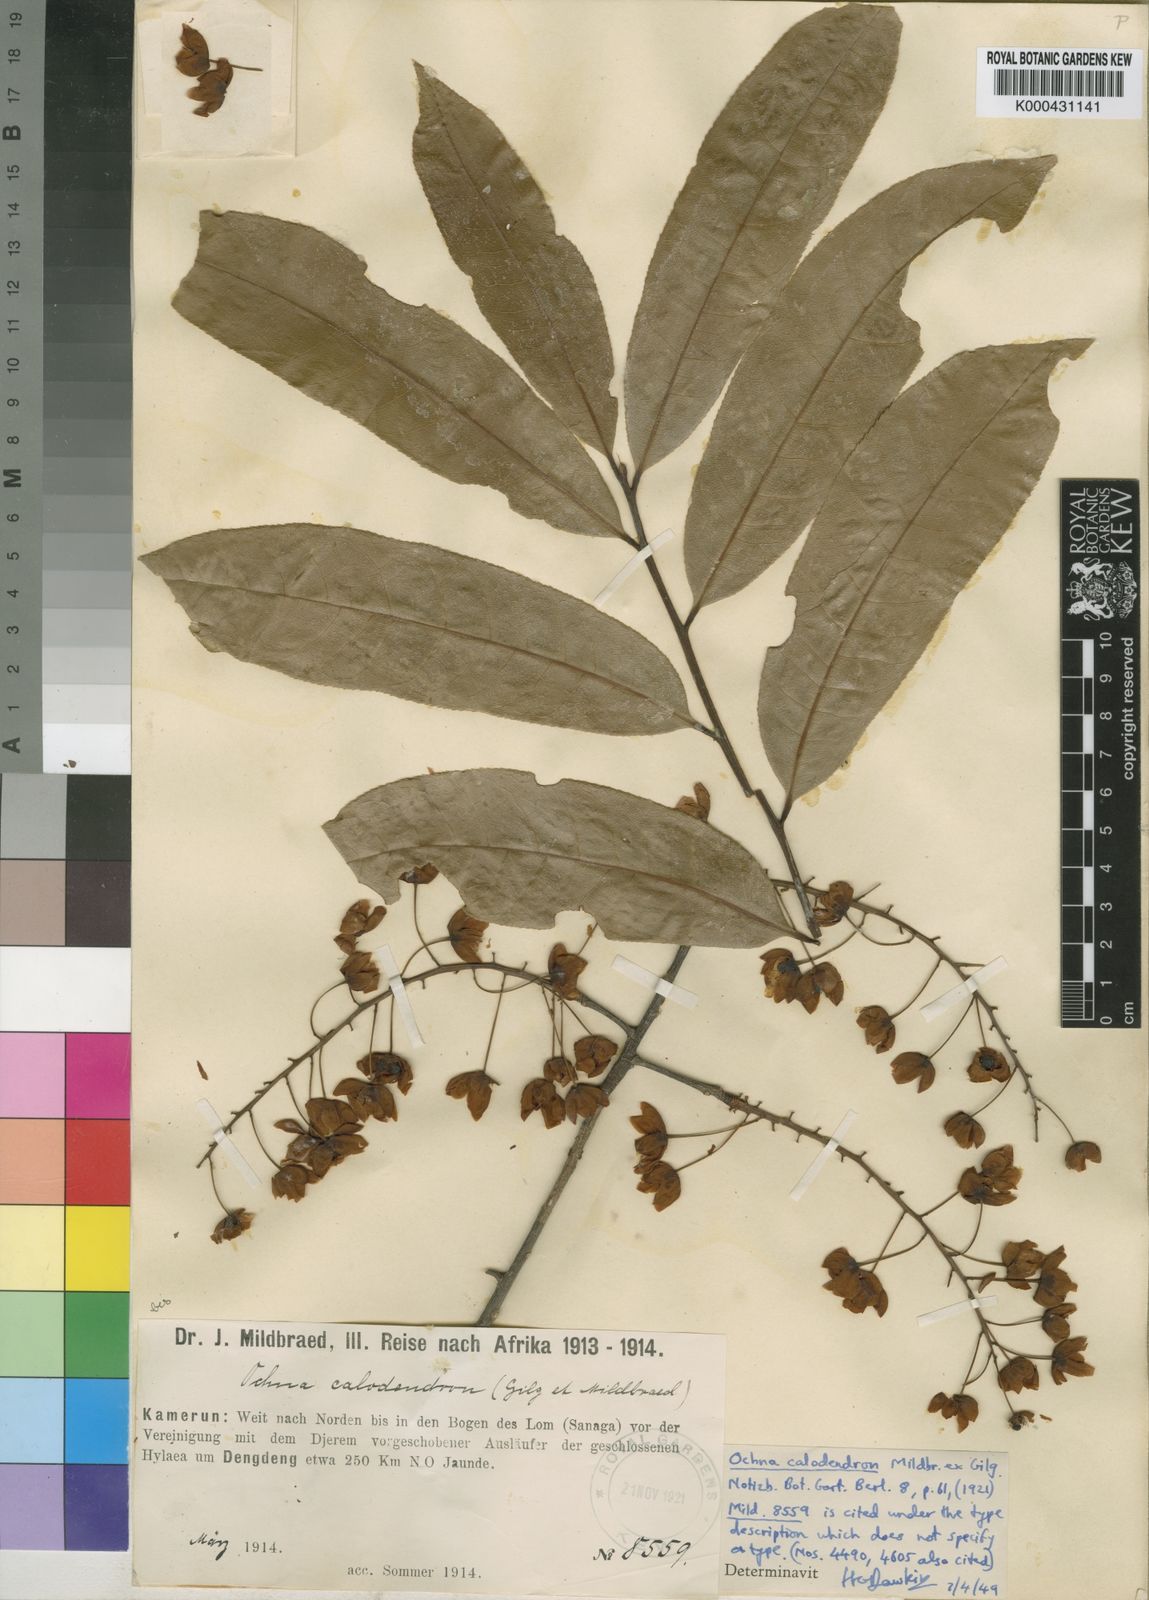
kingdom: Plantae
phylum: Tracheophyta
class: Magnoliopsida
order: Malpighiales
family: Ochnaceae
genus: Ochna
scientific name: Ochna calodendron
